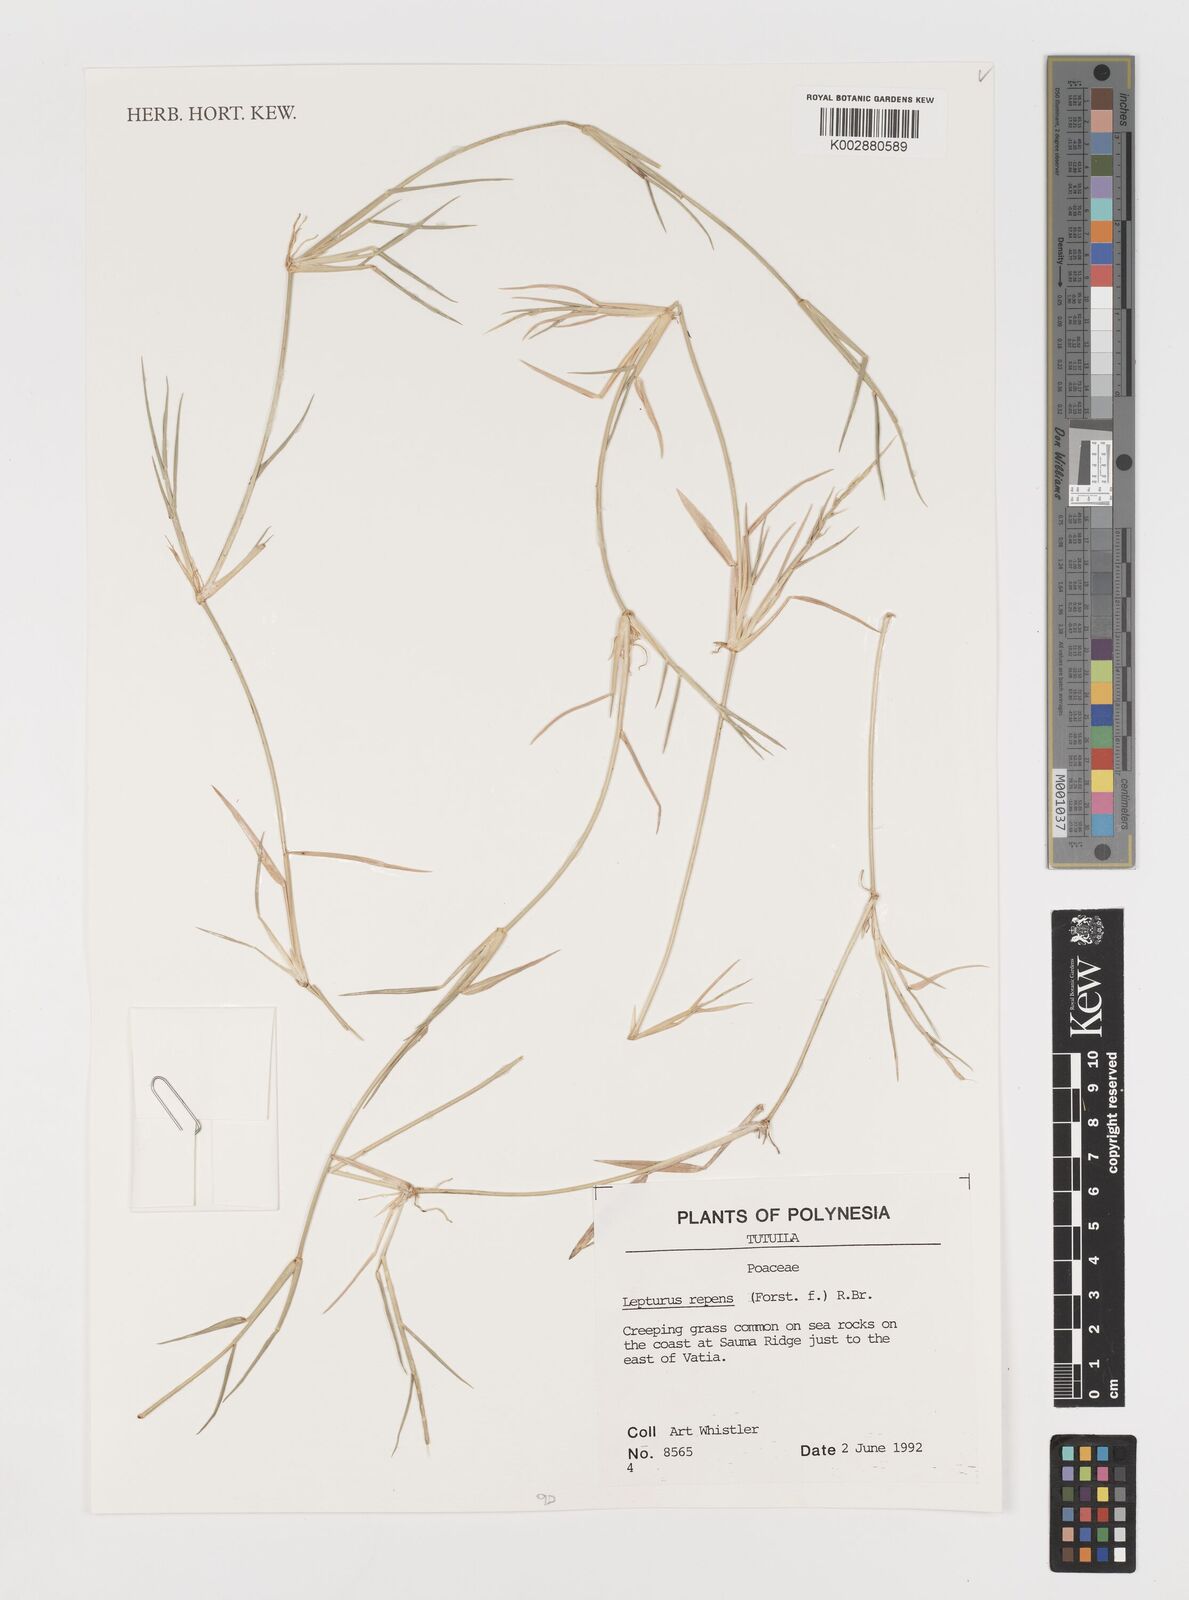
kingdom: Plantae
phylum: Tracheophyta
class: Liliopsida
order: Poales
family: Poaceae
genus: Lepturus
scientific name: Lepturus repens
